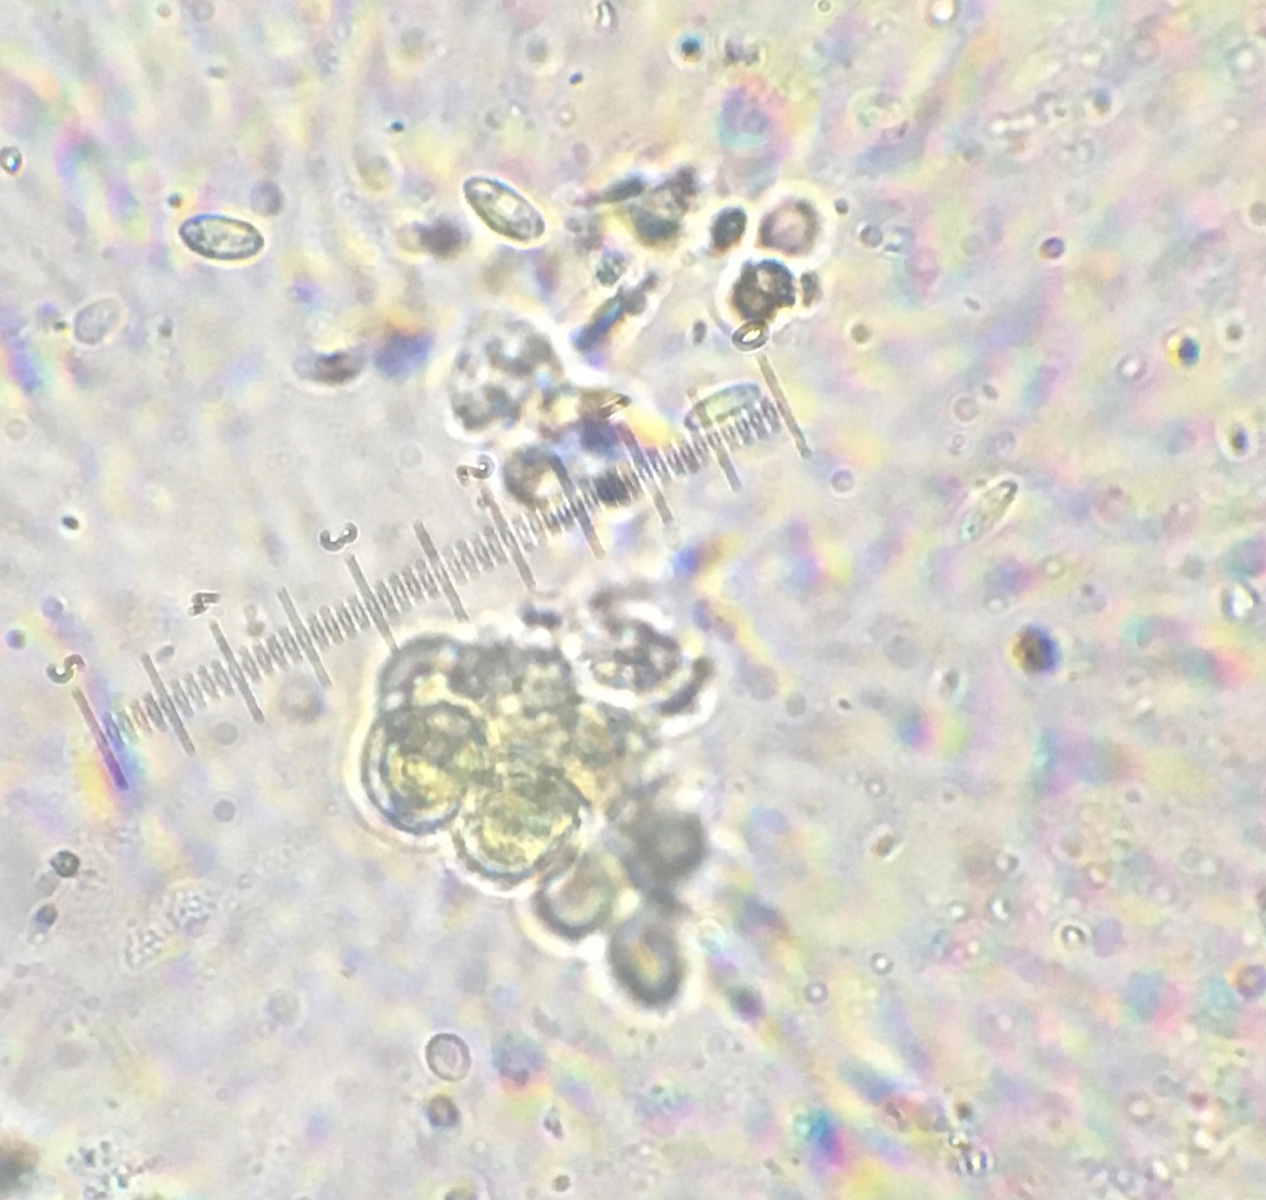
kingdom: Fungi
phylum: Ascomycota
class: Leotiomycetes
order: Helotiales
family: Cenangiaceae
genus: Cenangium
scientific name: Cenangium ferruginosum
